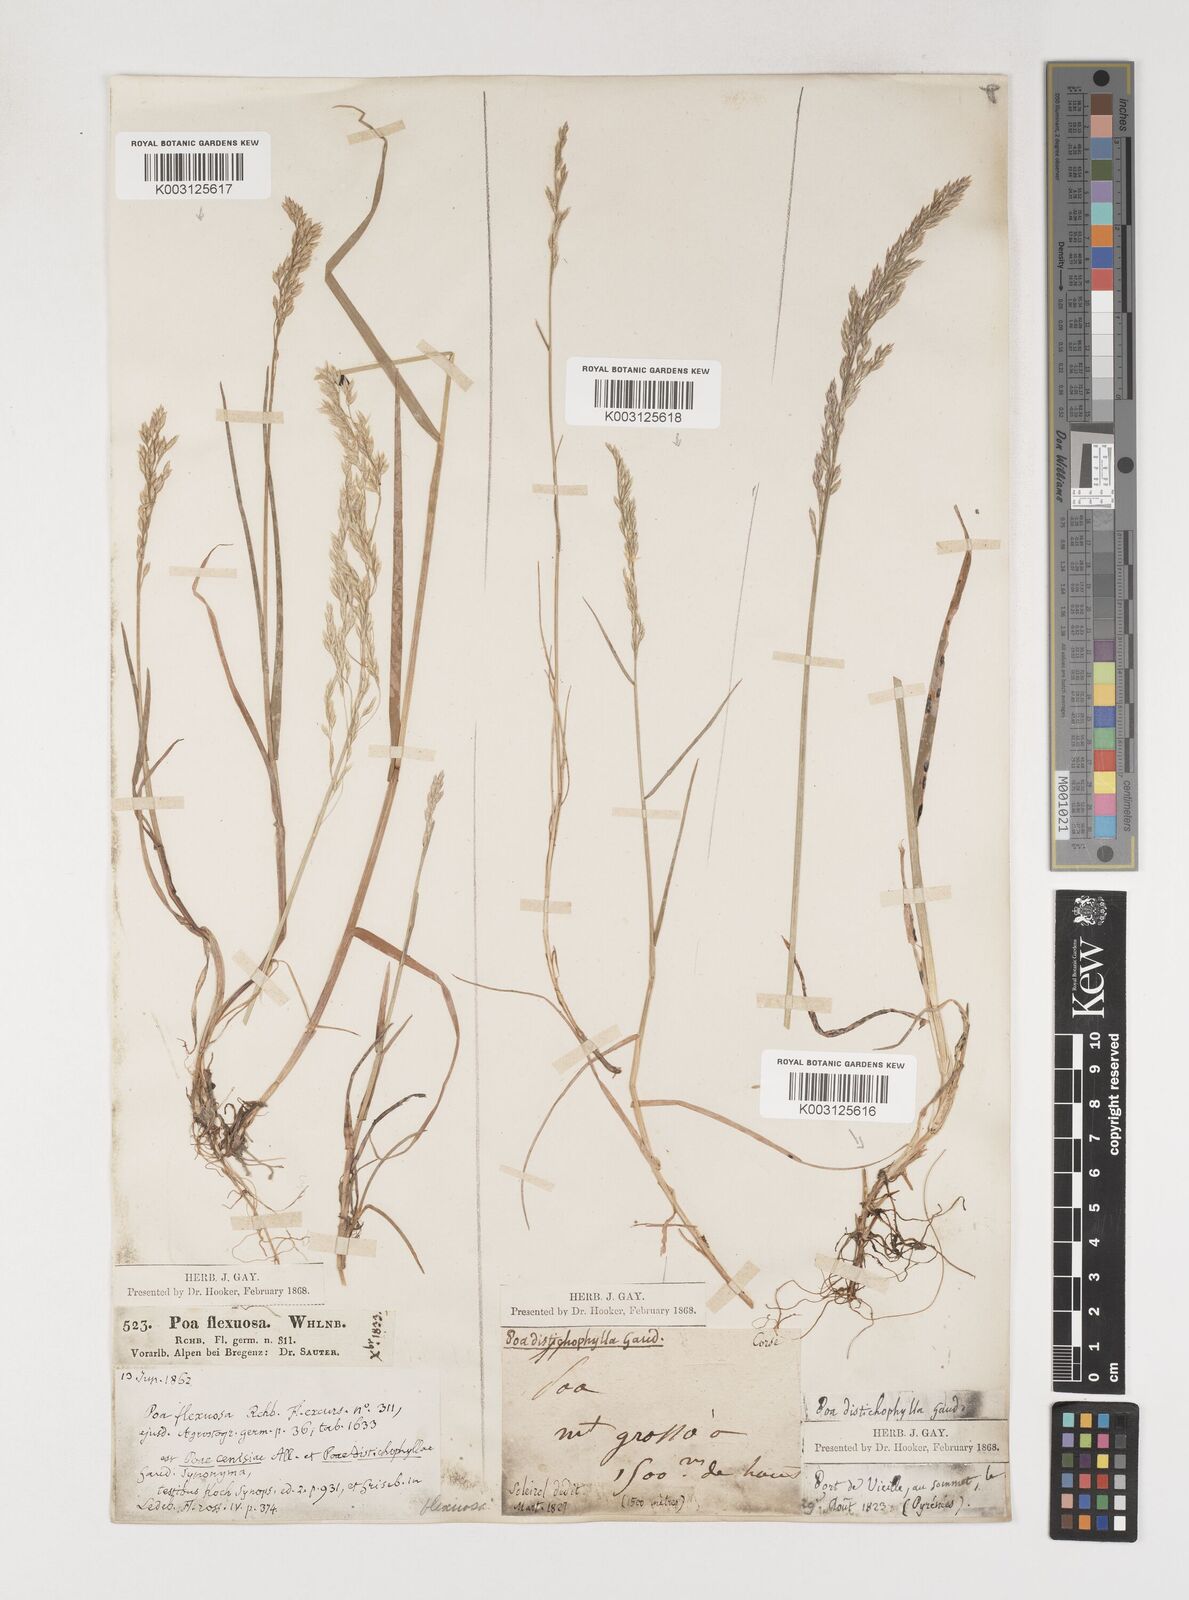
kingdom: Plantae
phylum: Tracheophyta
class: Liliopsida
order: Poales
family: Poaceae
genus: Poa
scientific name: Poa cenisia
